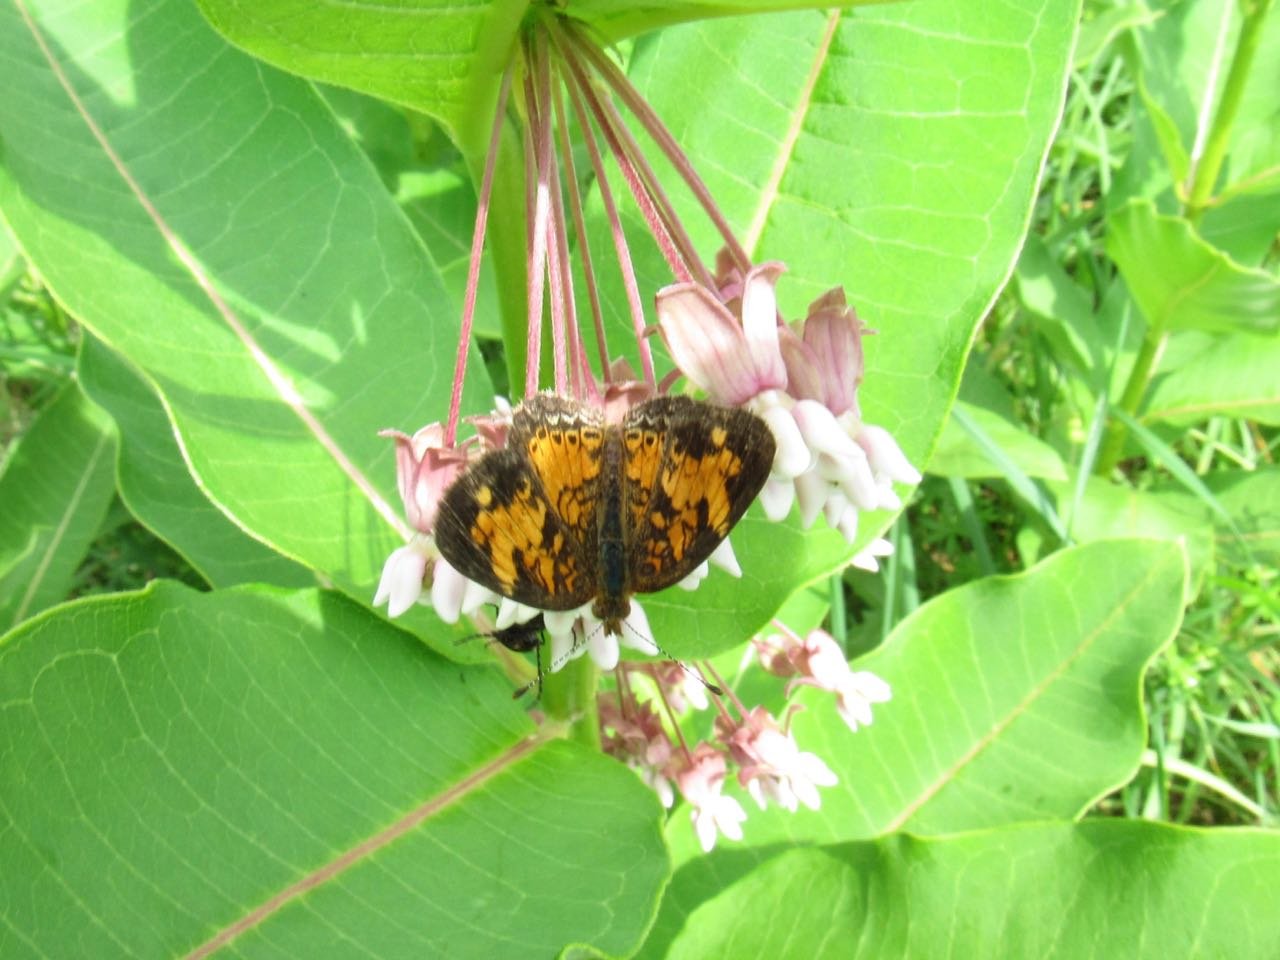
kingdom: Animalia
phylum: Arthropoda
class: Insecta
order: Lepidoptera
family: Nymphalidae
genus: Phyciodes
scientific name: Phyciodes tharos
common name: Pearl Crescent
